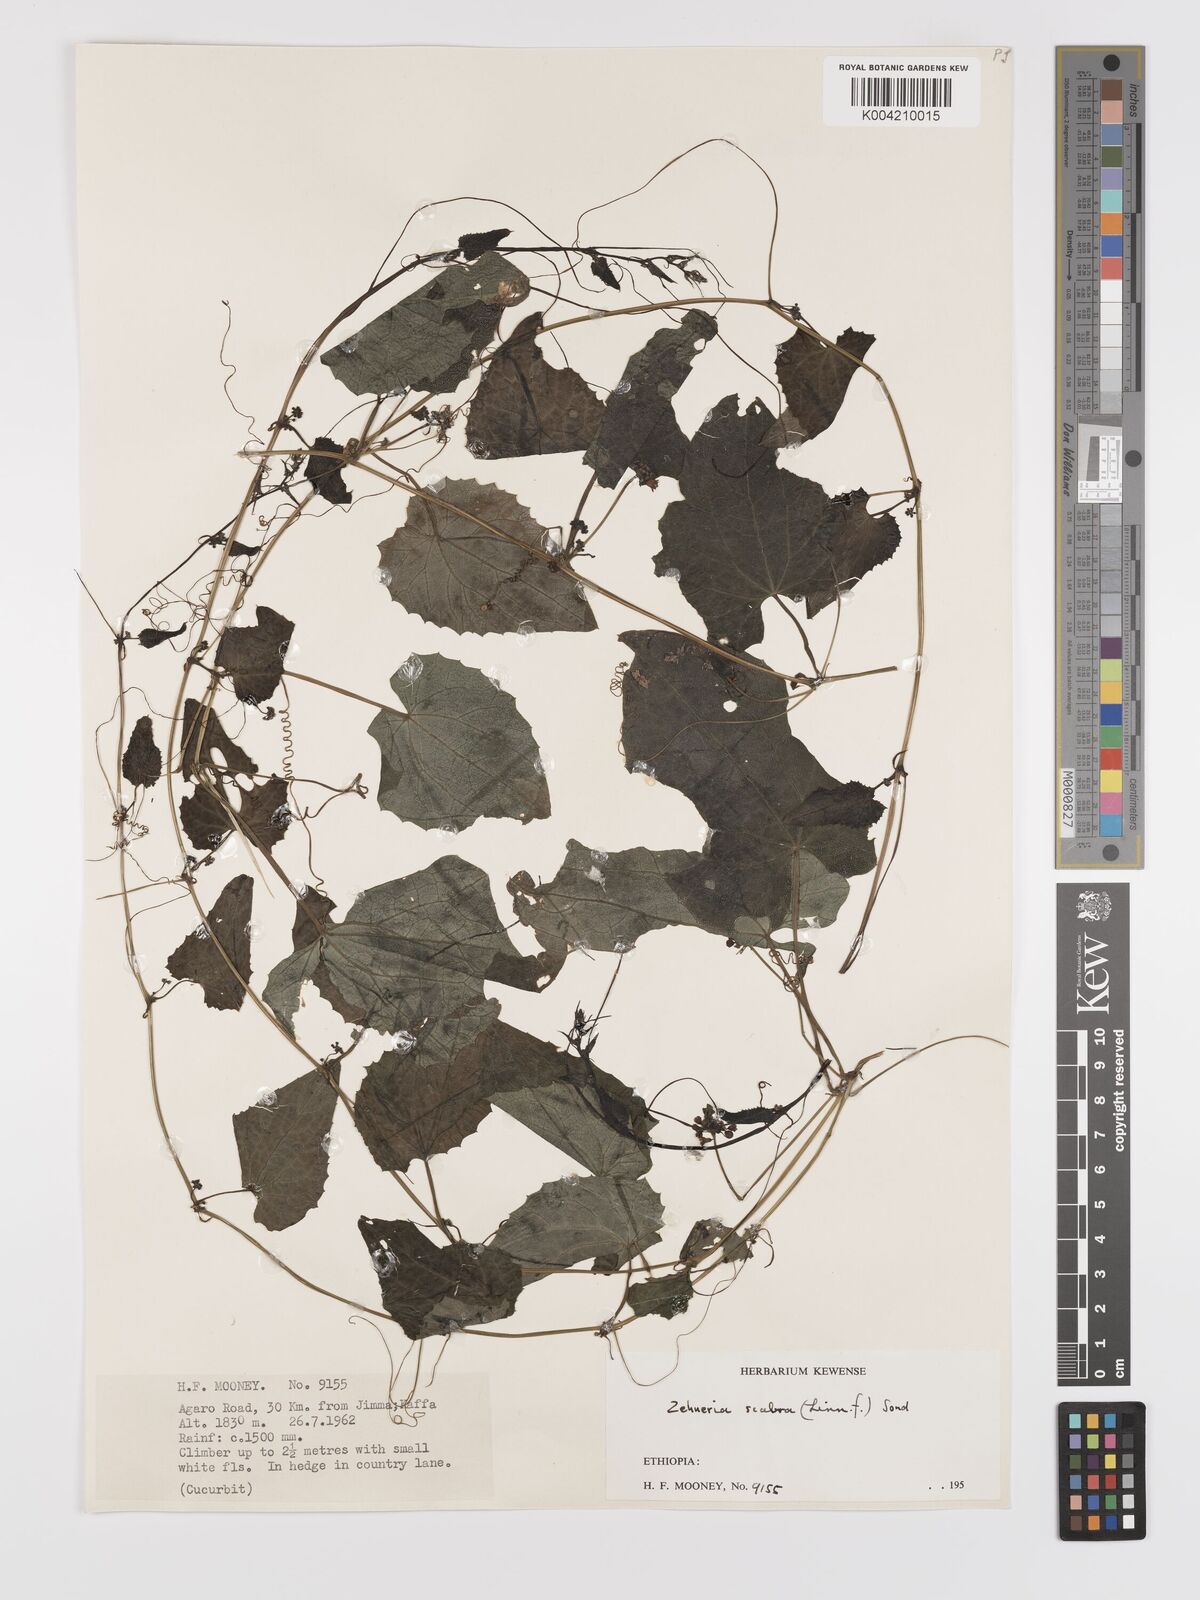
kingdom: Plantae
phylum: Tracheophyta
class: Magnoliopsida
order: Cucurbitales
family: Cucurbitaceae
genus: Zehneria
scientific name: Zehneria scabra
